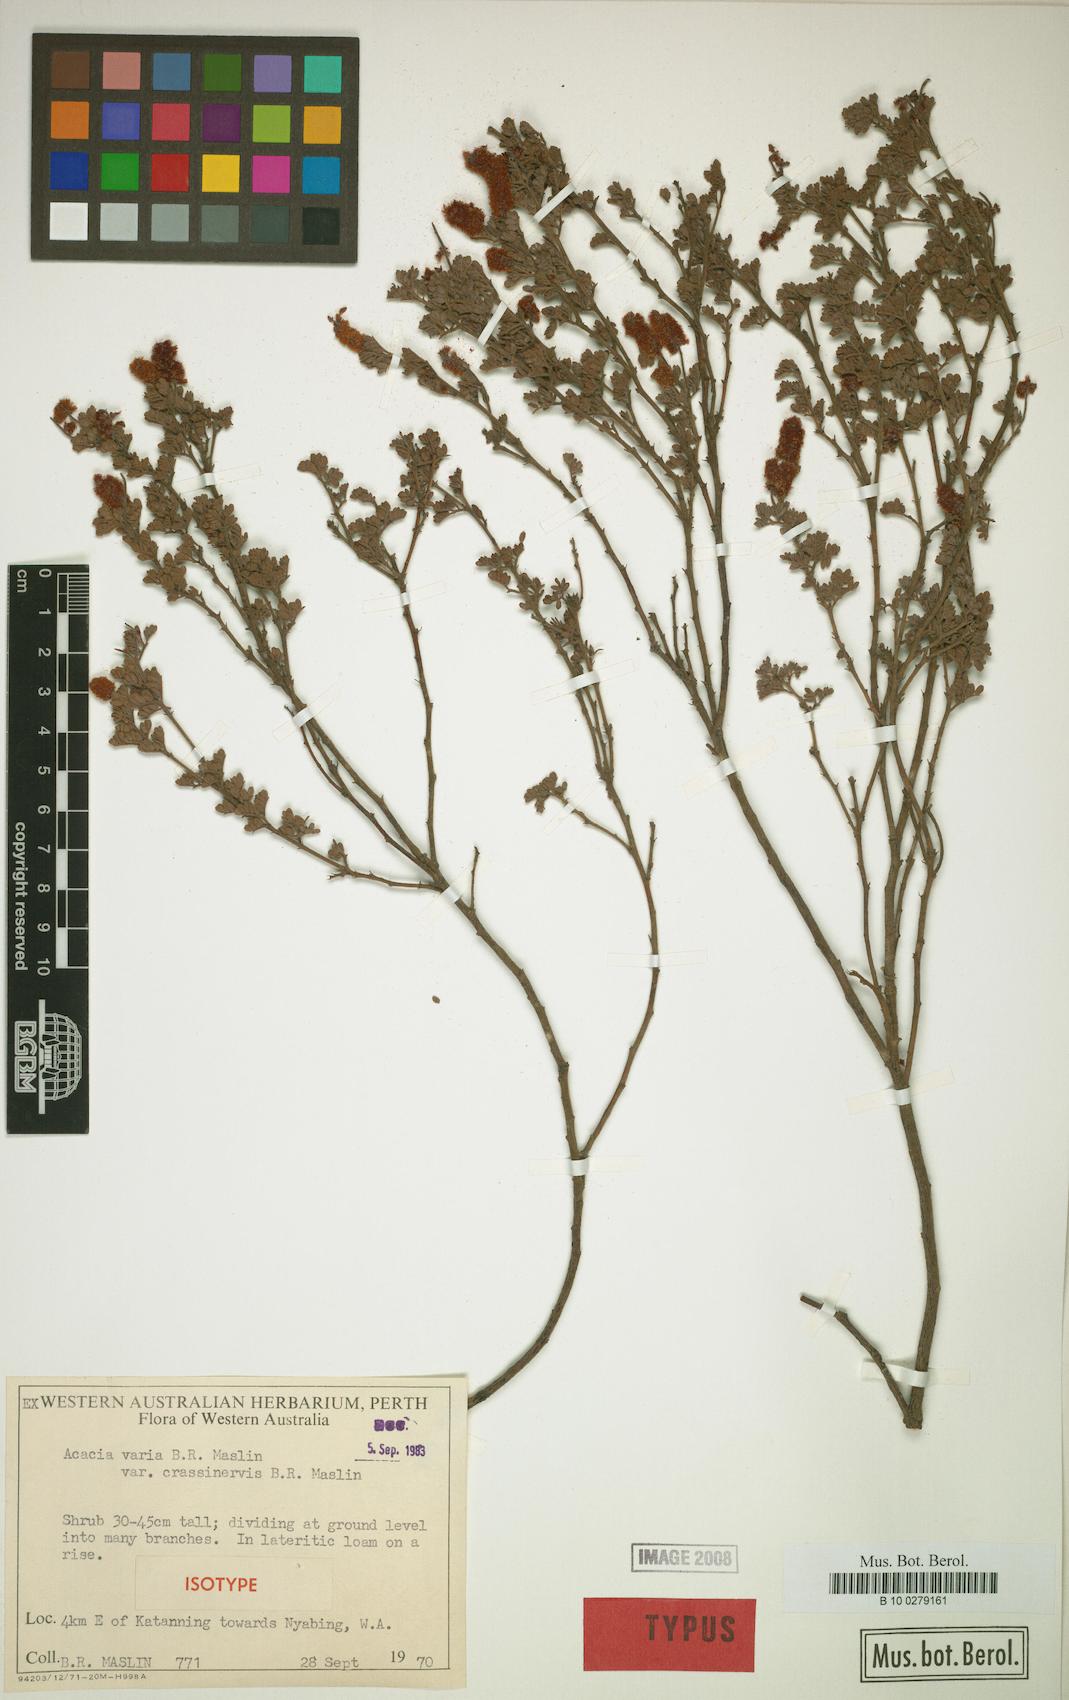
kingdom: Plantae
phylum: Tracheophyta
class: Magnoliopsida
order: Fabales
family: Fabaceae
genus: Acacia
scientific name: Acacia varia
